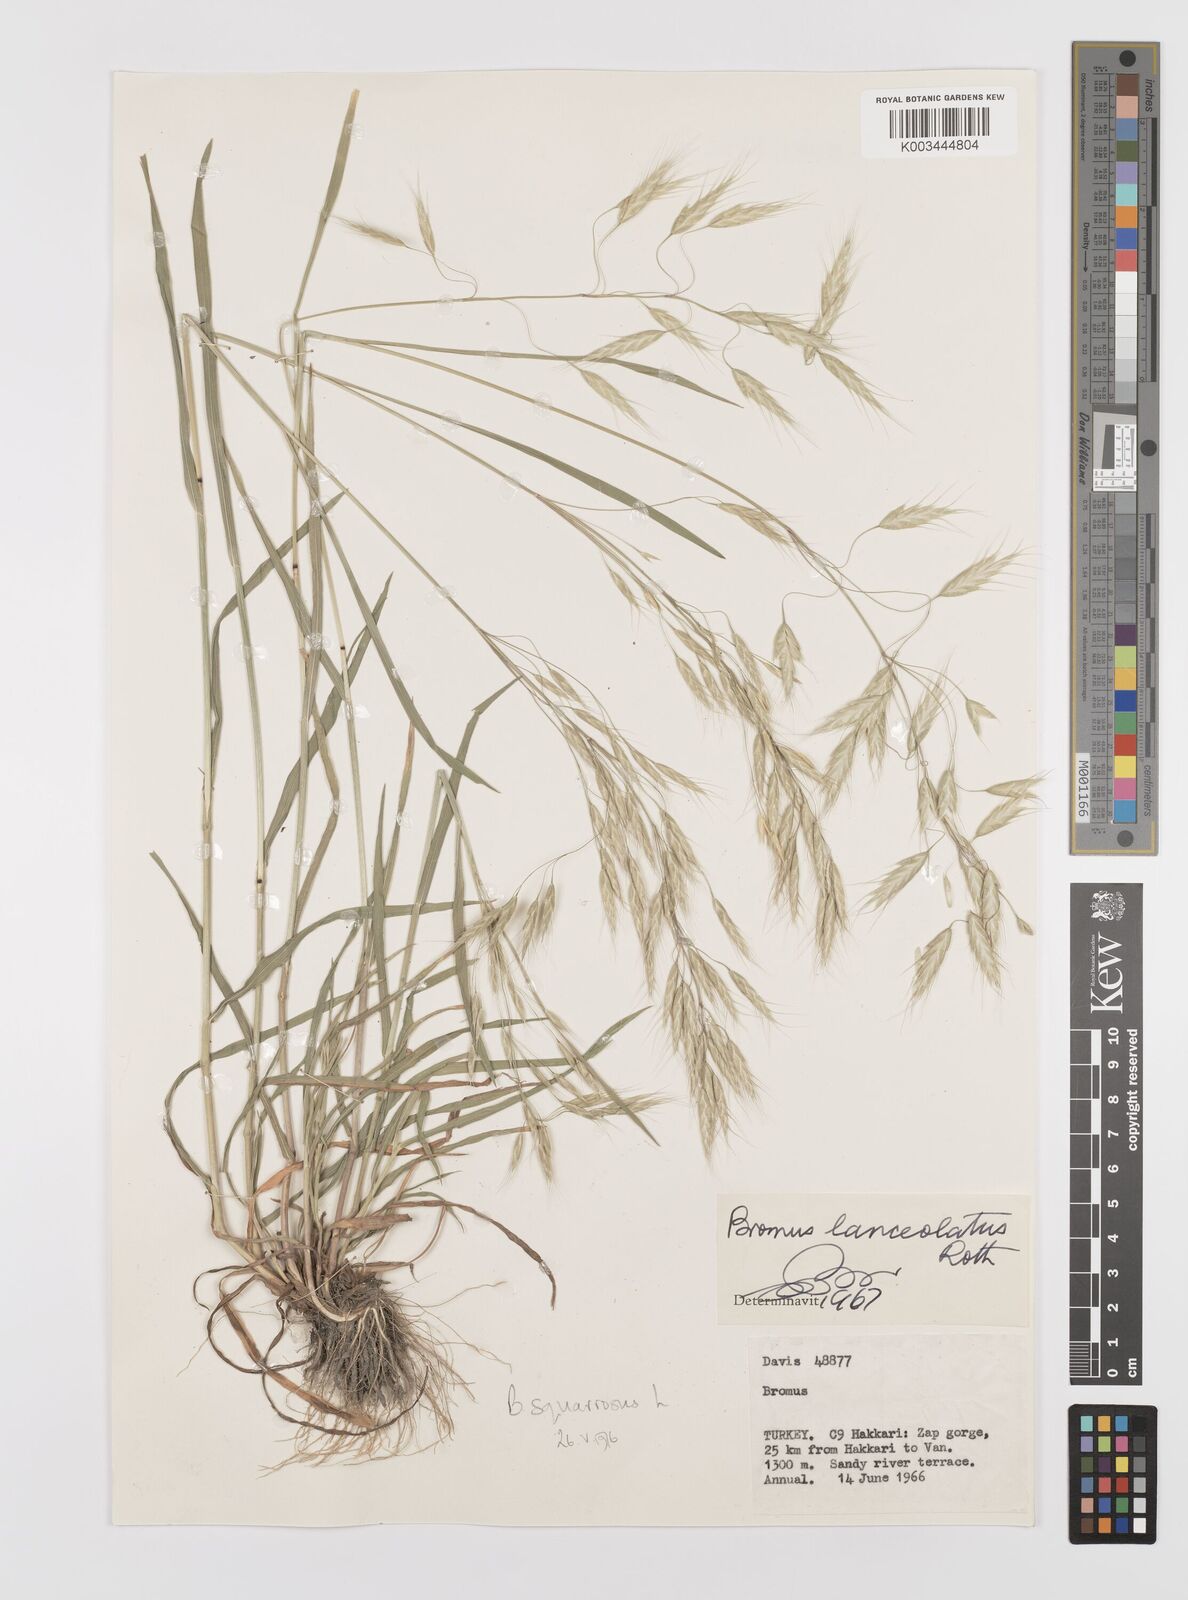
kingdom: Plantae
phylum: Tracheophyta
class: Liliopsida
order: Poales
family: Poaceae
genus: Bromus
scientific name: Bromus squarrosus
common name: Corn brome
